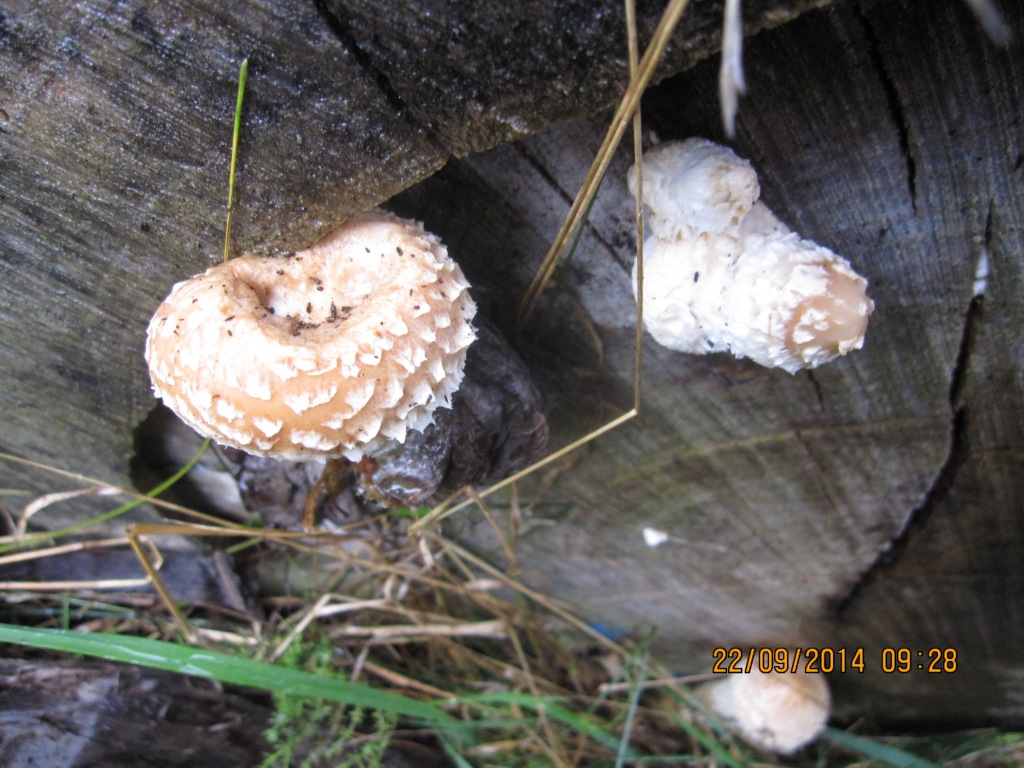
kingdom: Fungi
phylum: Basidiomycota
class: Agaricomycetes
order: Agaricales
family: Strophariaceae
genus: Pholiota
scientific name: Pholiota populnea
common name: poppel-kæmpeskælhat
